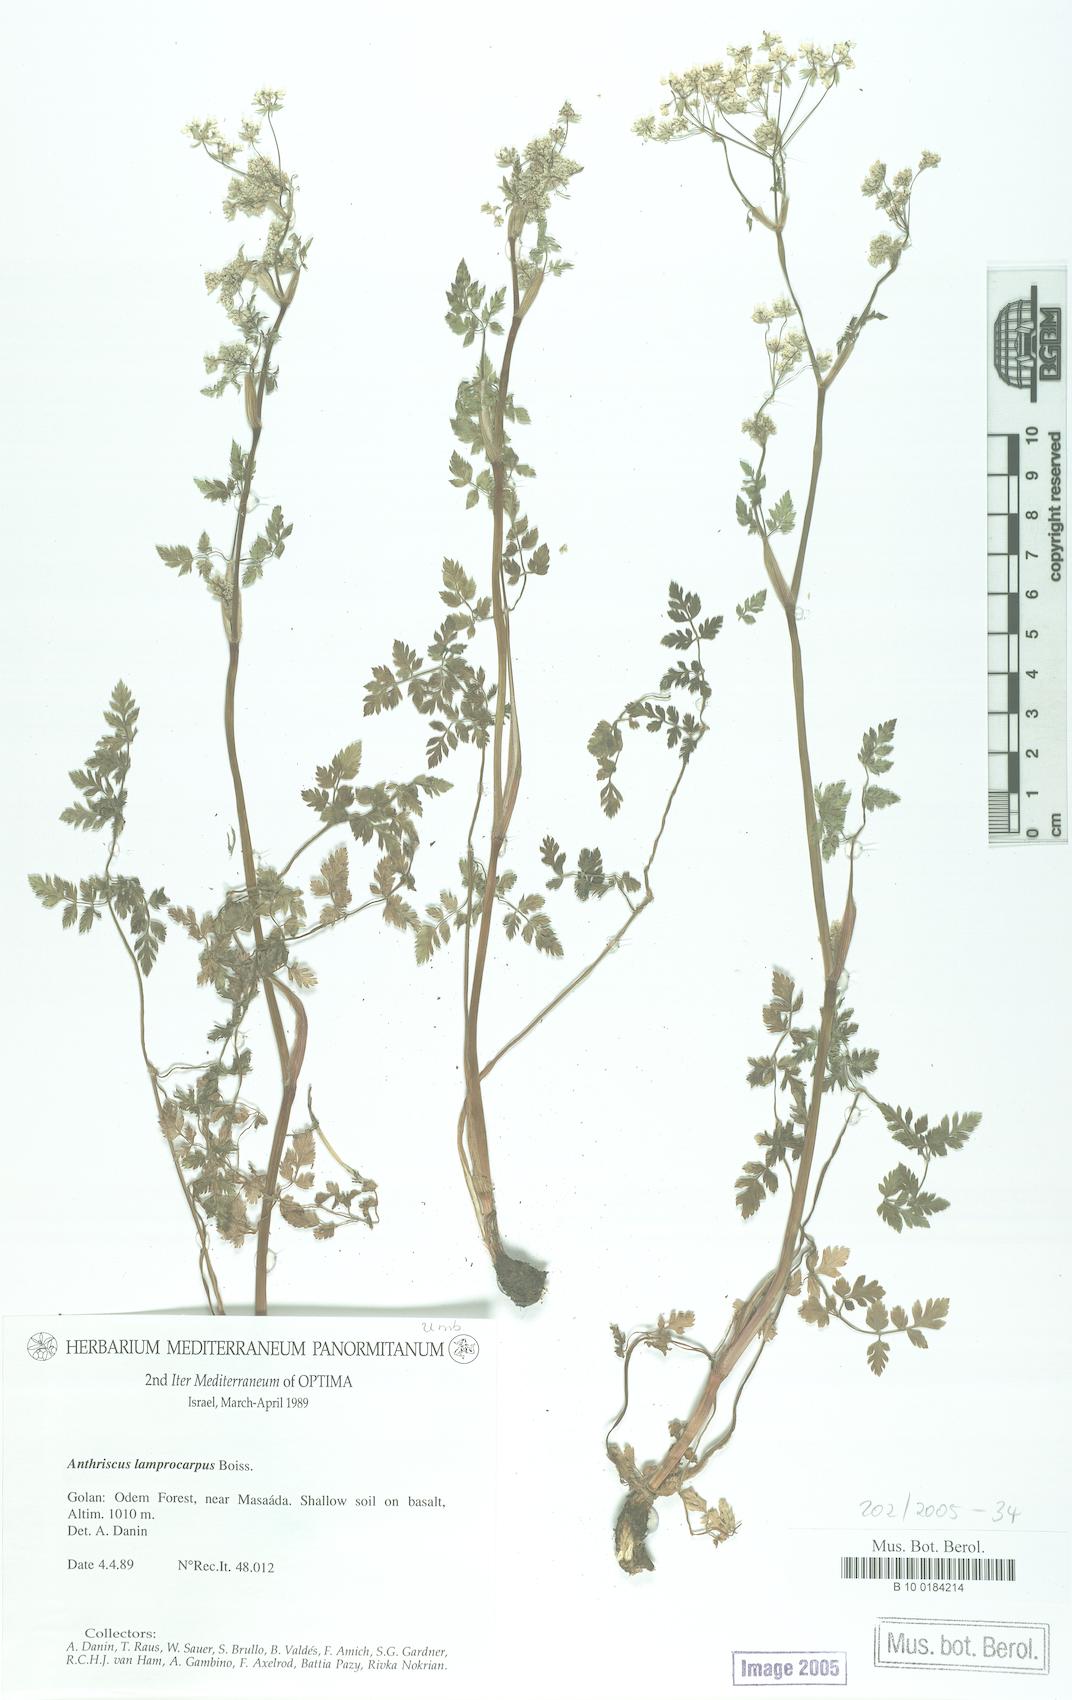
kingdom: Plantae
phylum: Tracheophyta
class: Magnoliopsida
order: Apiales
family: Apiaceae
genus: Anthriscus
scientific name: Anthriscus lamprocarpa
